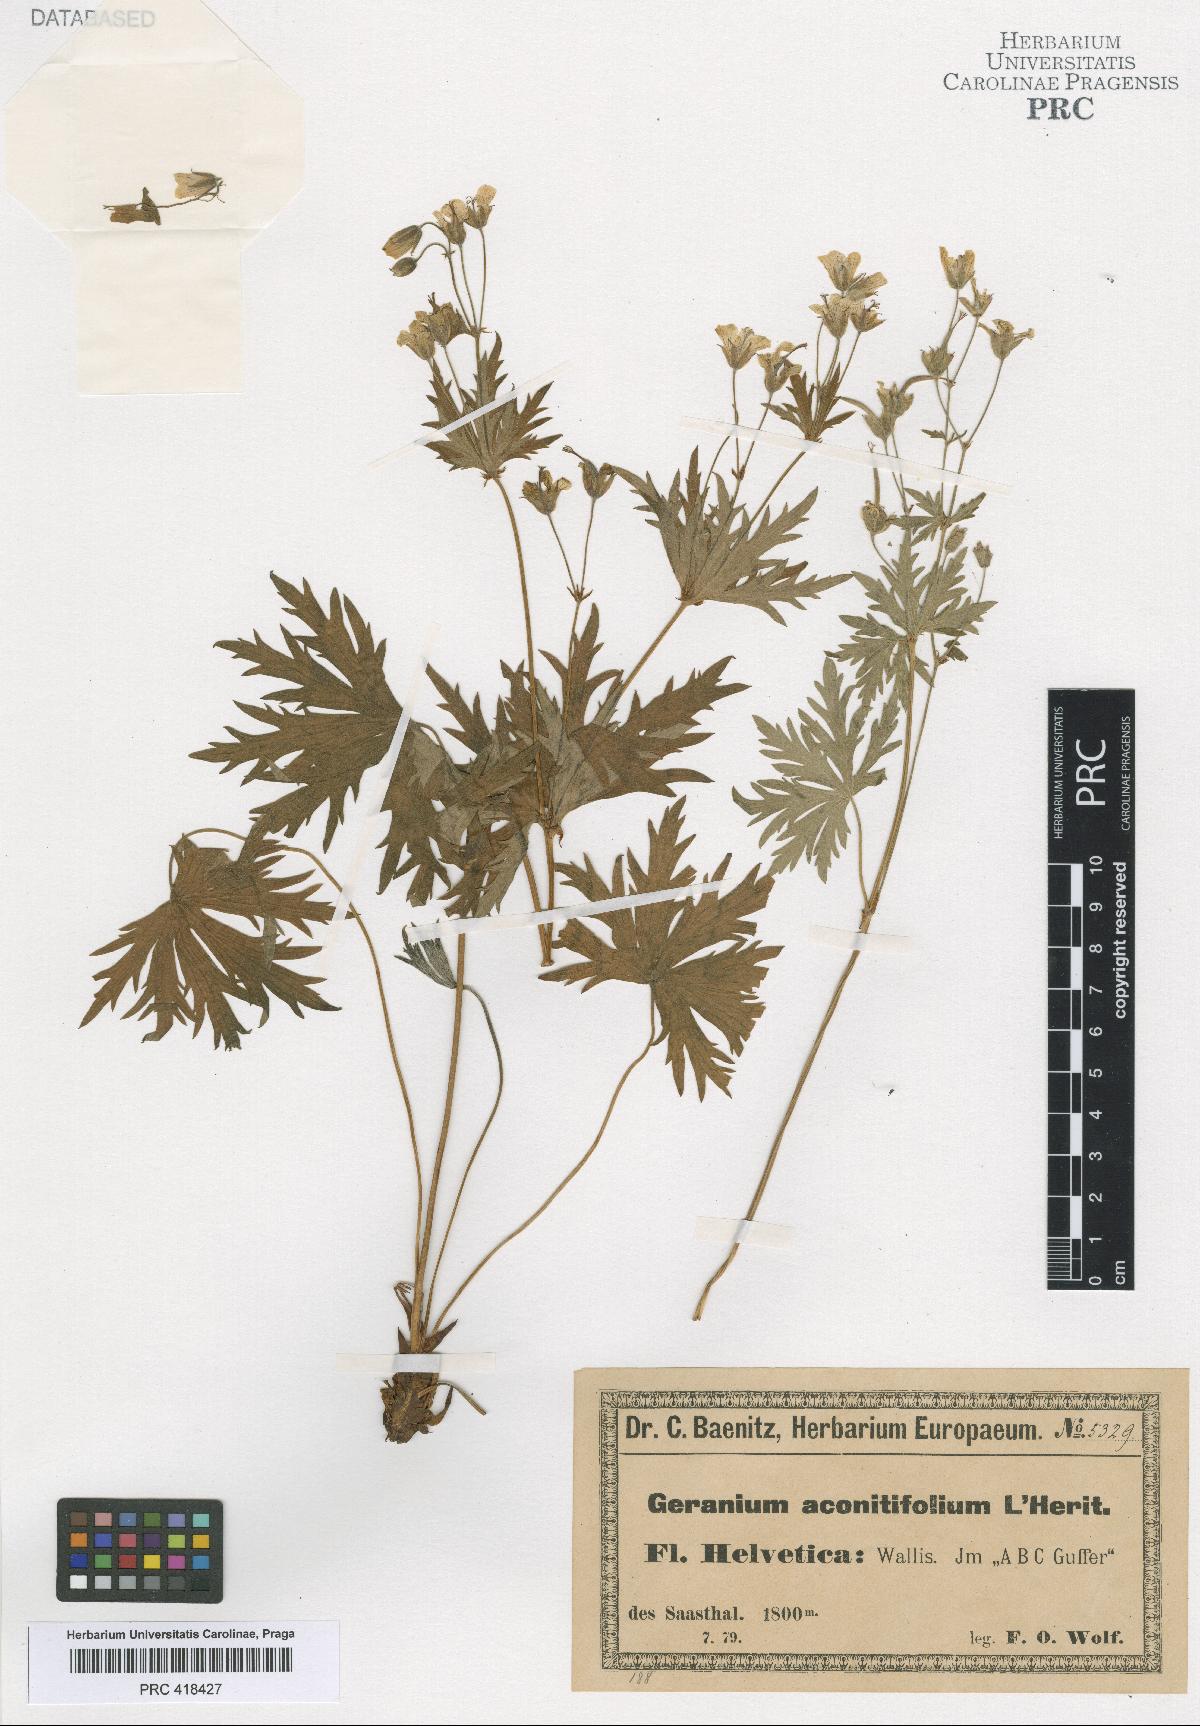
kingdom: Plantae
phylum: Tracheophyta
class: Magnoliopsida
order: Geraniales
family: Geraniaceae
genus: Geranium
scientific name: Geranium rivulare
